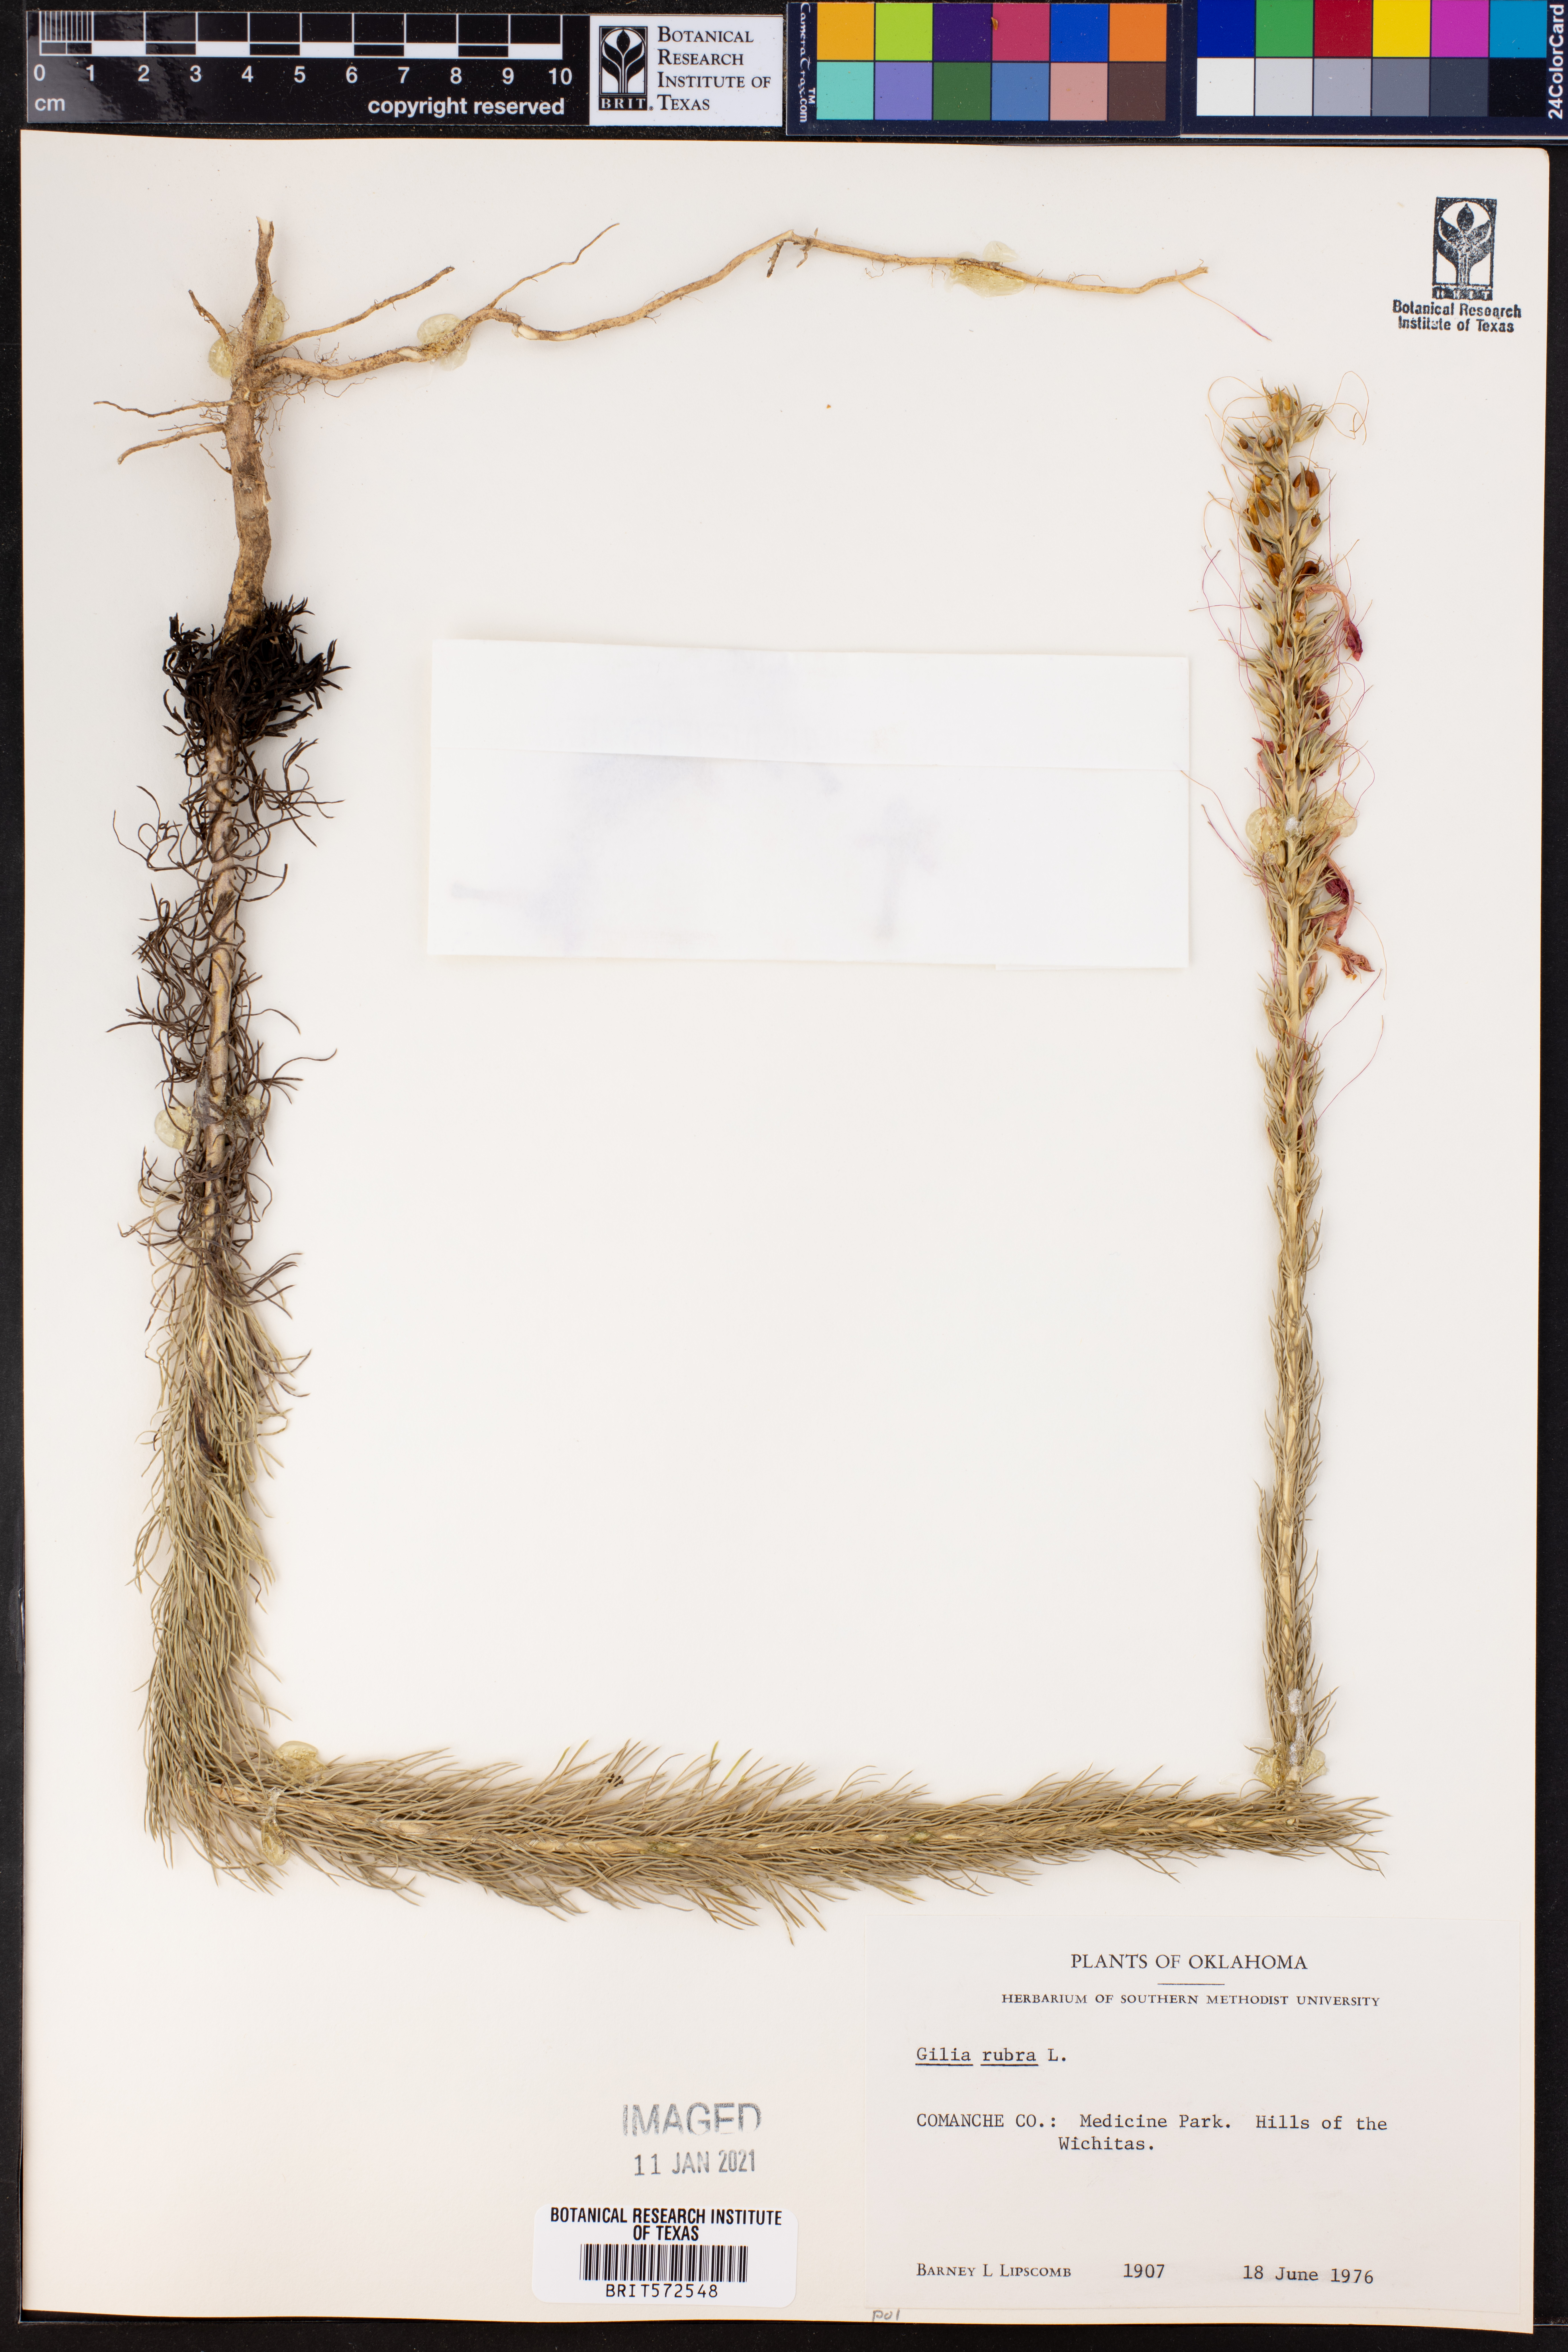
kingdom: Plantae
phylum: Tracheophyta
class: Magnoliopsida
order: Ericales
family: Polemoniaceae
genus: Ipomopsis
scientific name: Ipomopsis rubra
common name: Skyrocket
